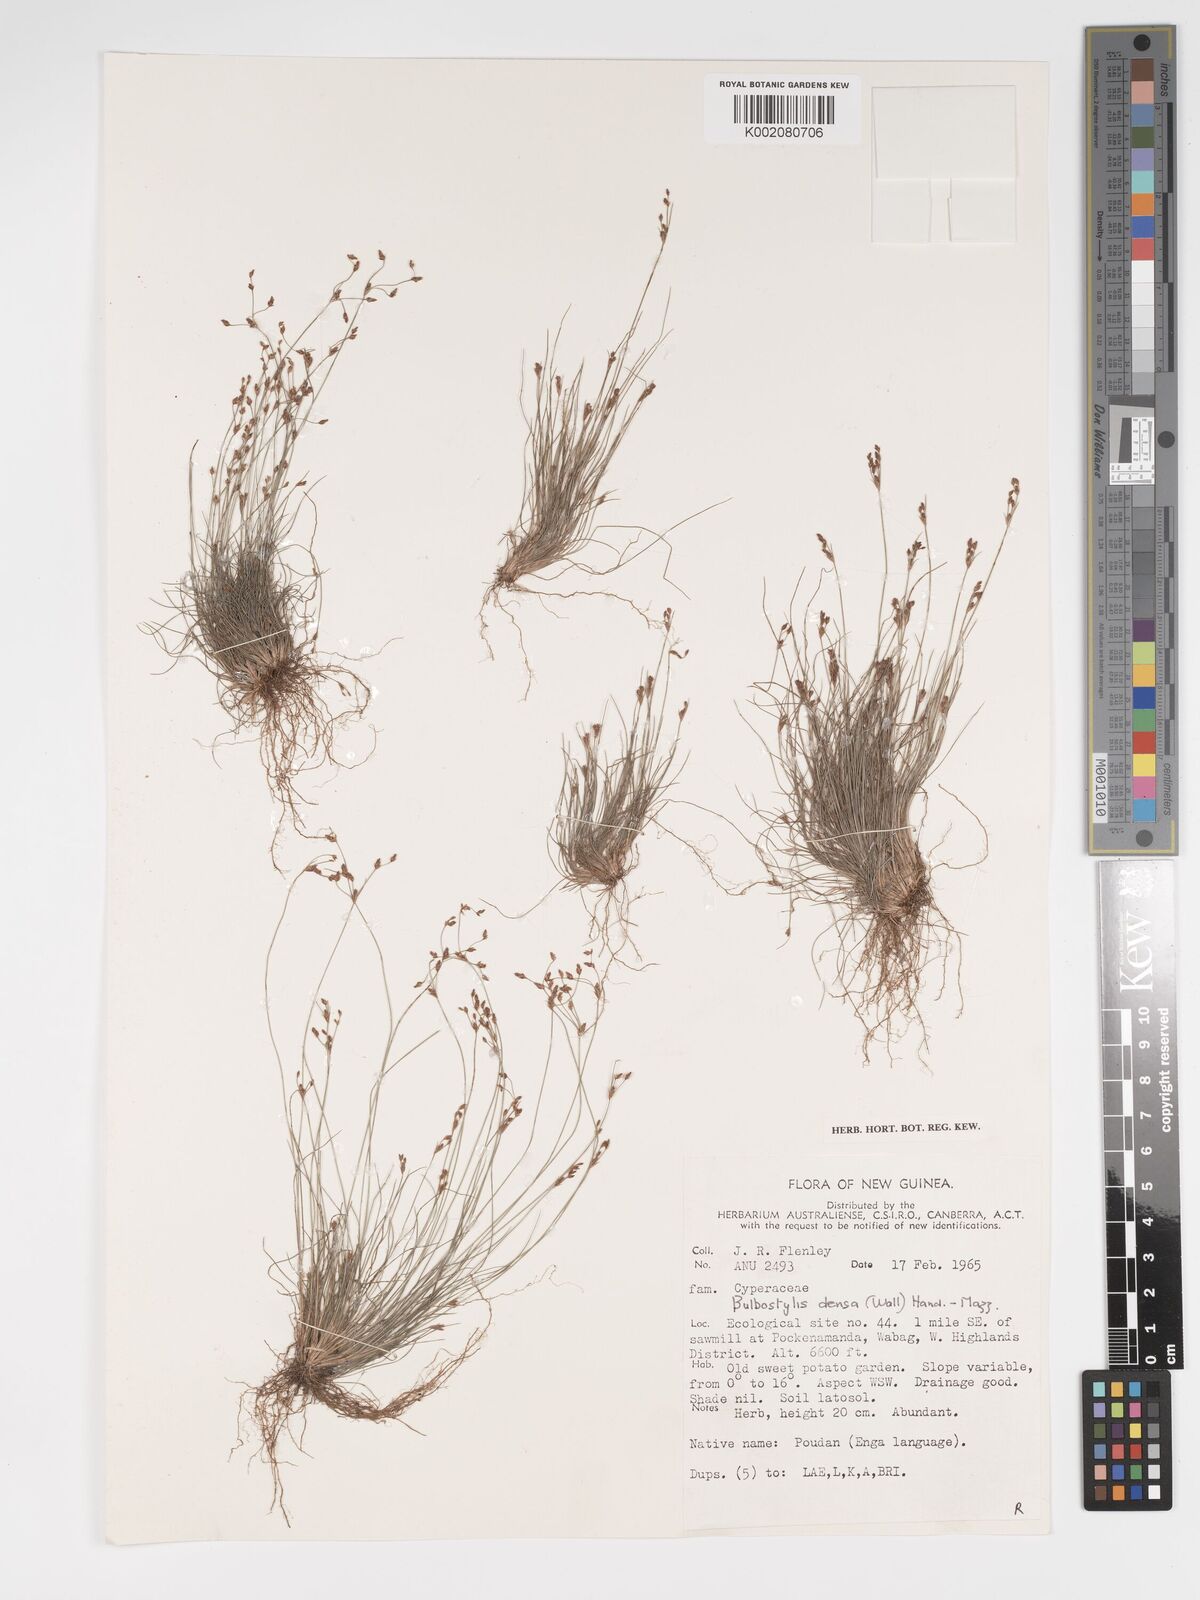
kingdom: Plantae
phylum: Tracheophyta
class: Liliopsida
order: Poales
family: Cyperaceae
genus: Bulbostylis
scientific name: Bulbostylis densa
